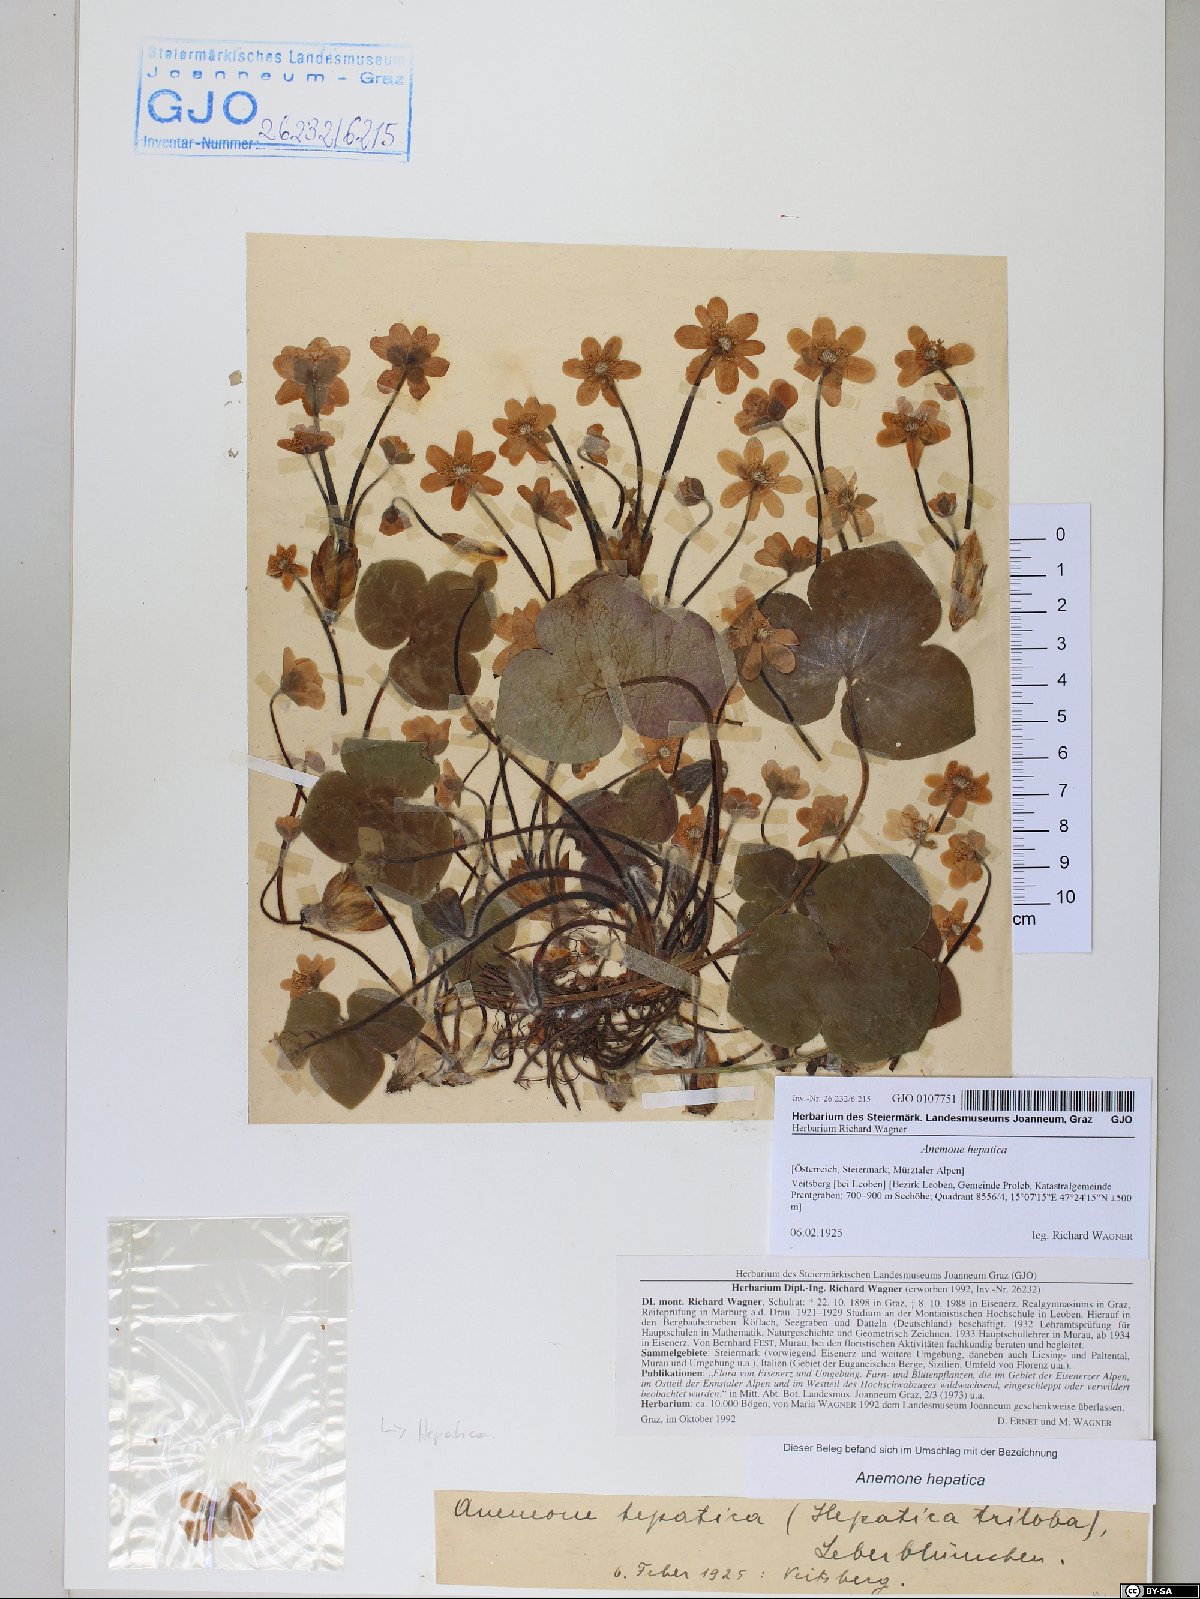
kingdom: Plantae
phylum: Tracheophyta
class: Magnoliopsida
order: Ranunculales
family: Ranunculaceae
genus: Hepatica
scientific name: Hepatica nobilis
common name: Liverleaf
